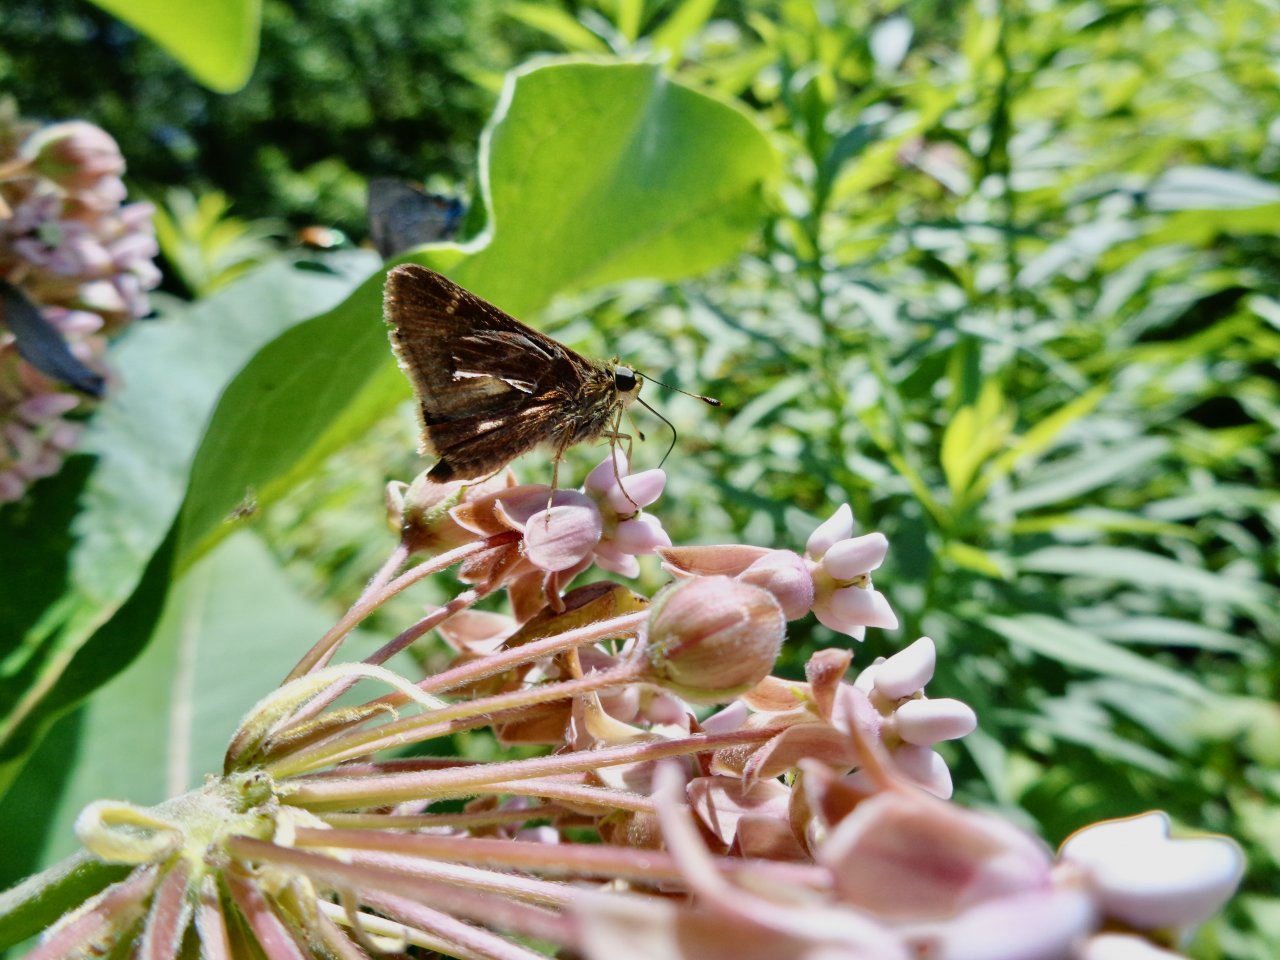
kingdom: Animalia
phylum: Arthropoda
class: Insecta
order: Lepidoptera
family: Hesperiidae
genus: Vernia
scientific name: Vernia verna
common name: Little Glassywing
